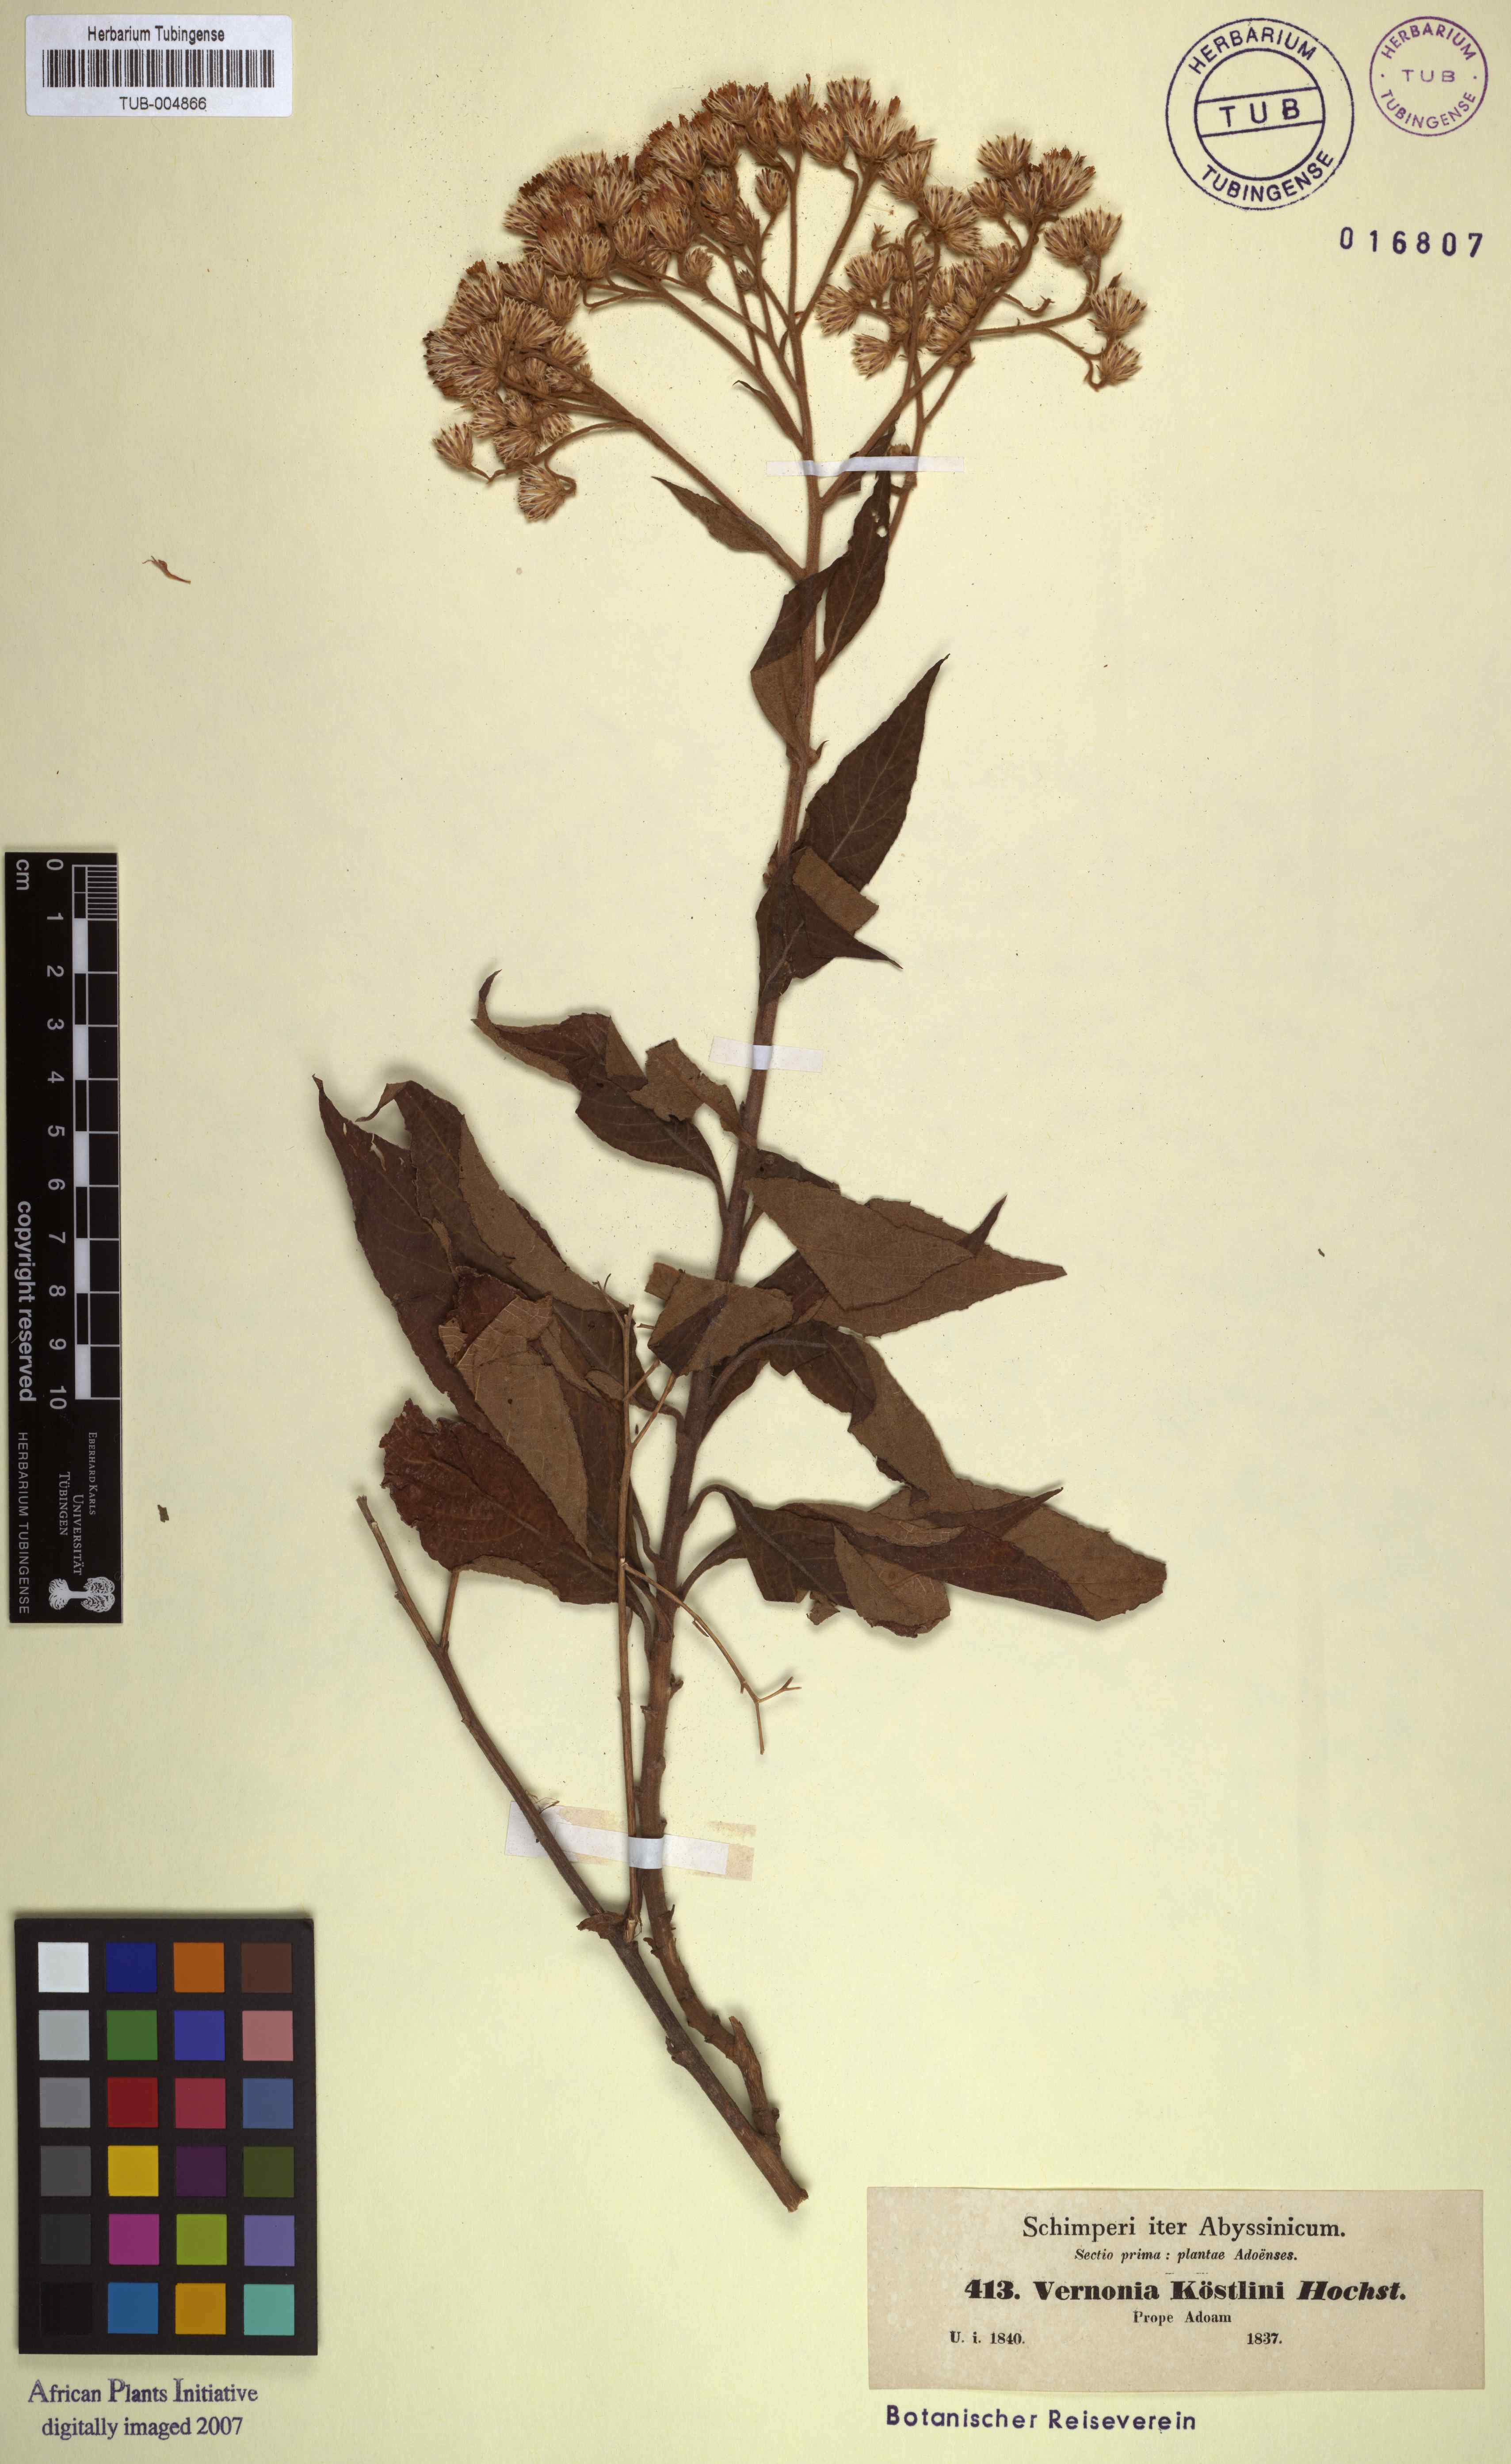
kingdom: Plantae
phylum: Tracheophyta
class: Magnoliopsida
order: Asterales
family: Asteraceae
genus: Vernonia
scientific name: Vernonia hochstetteri
